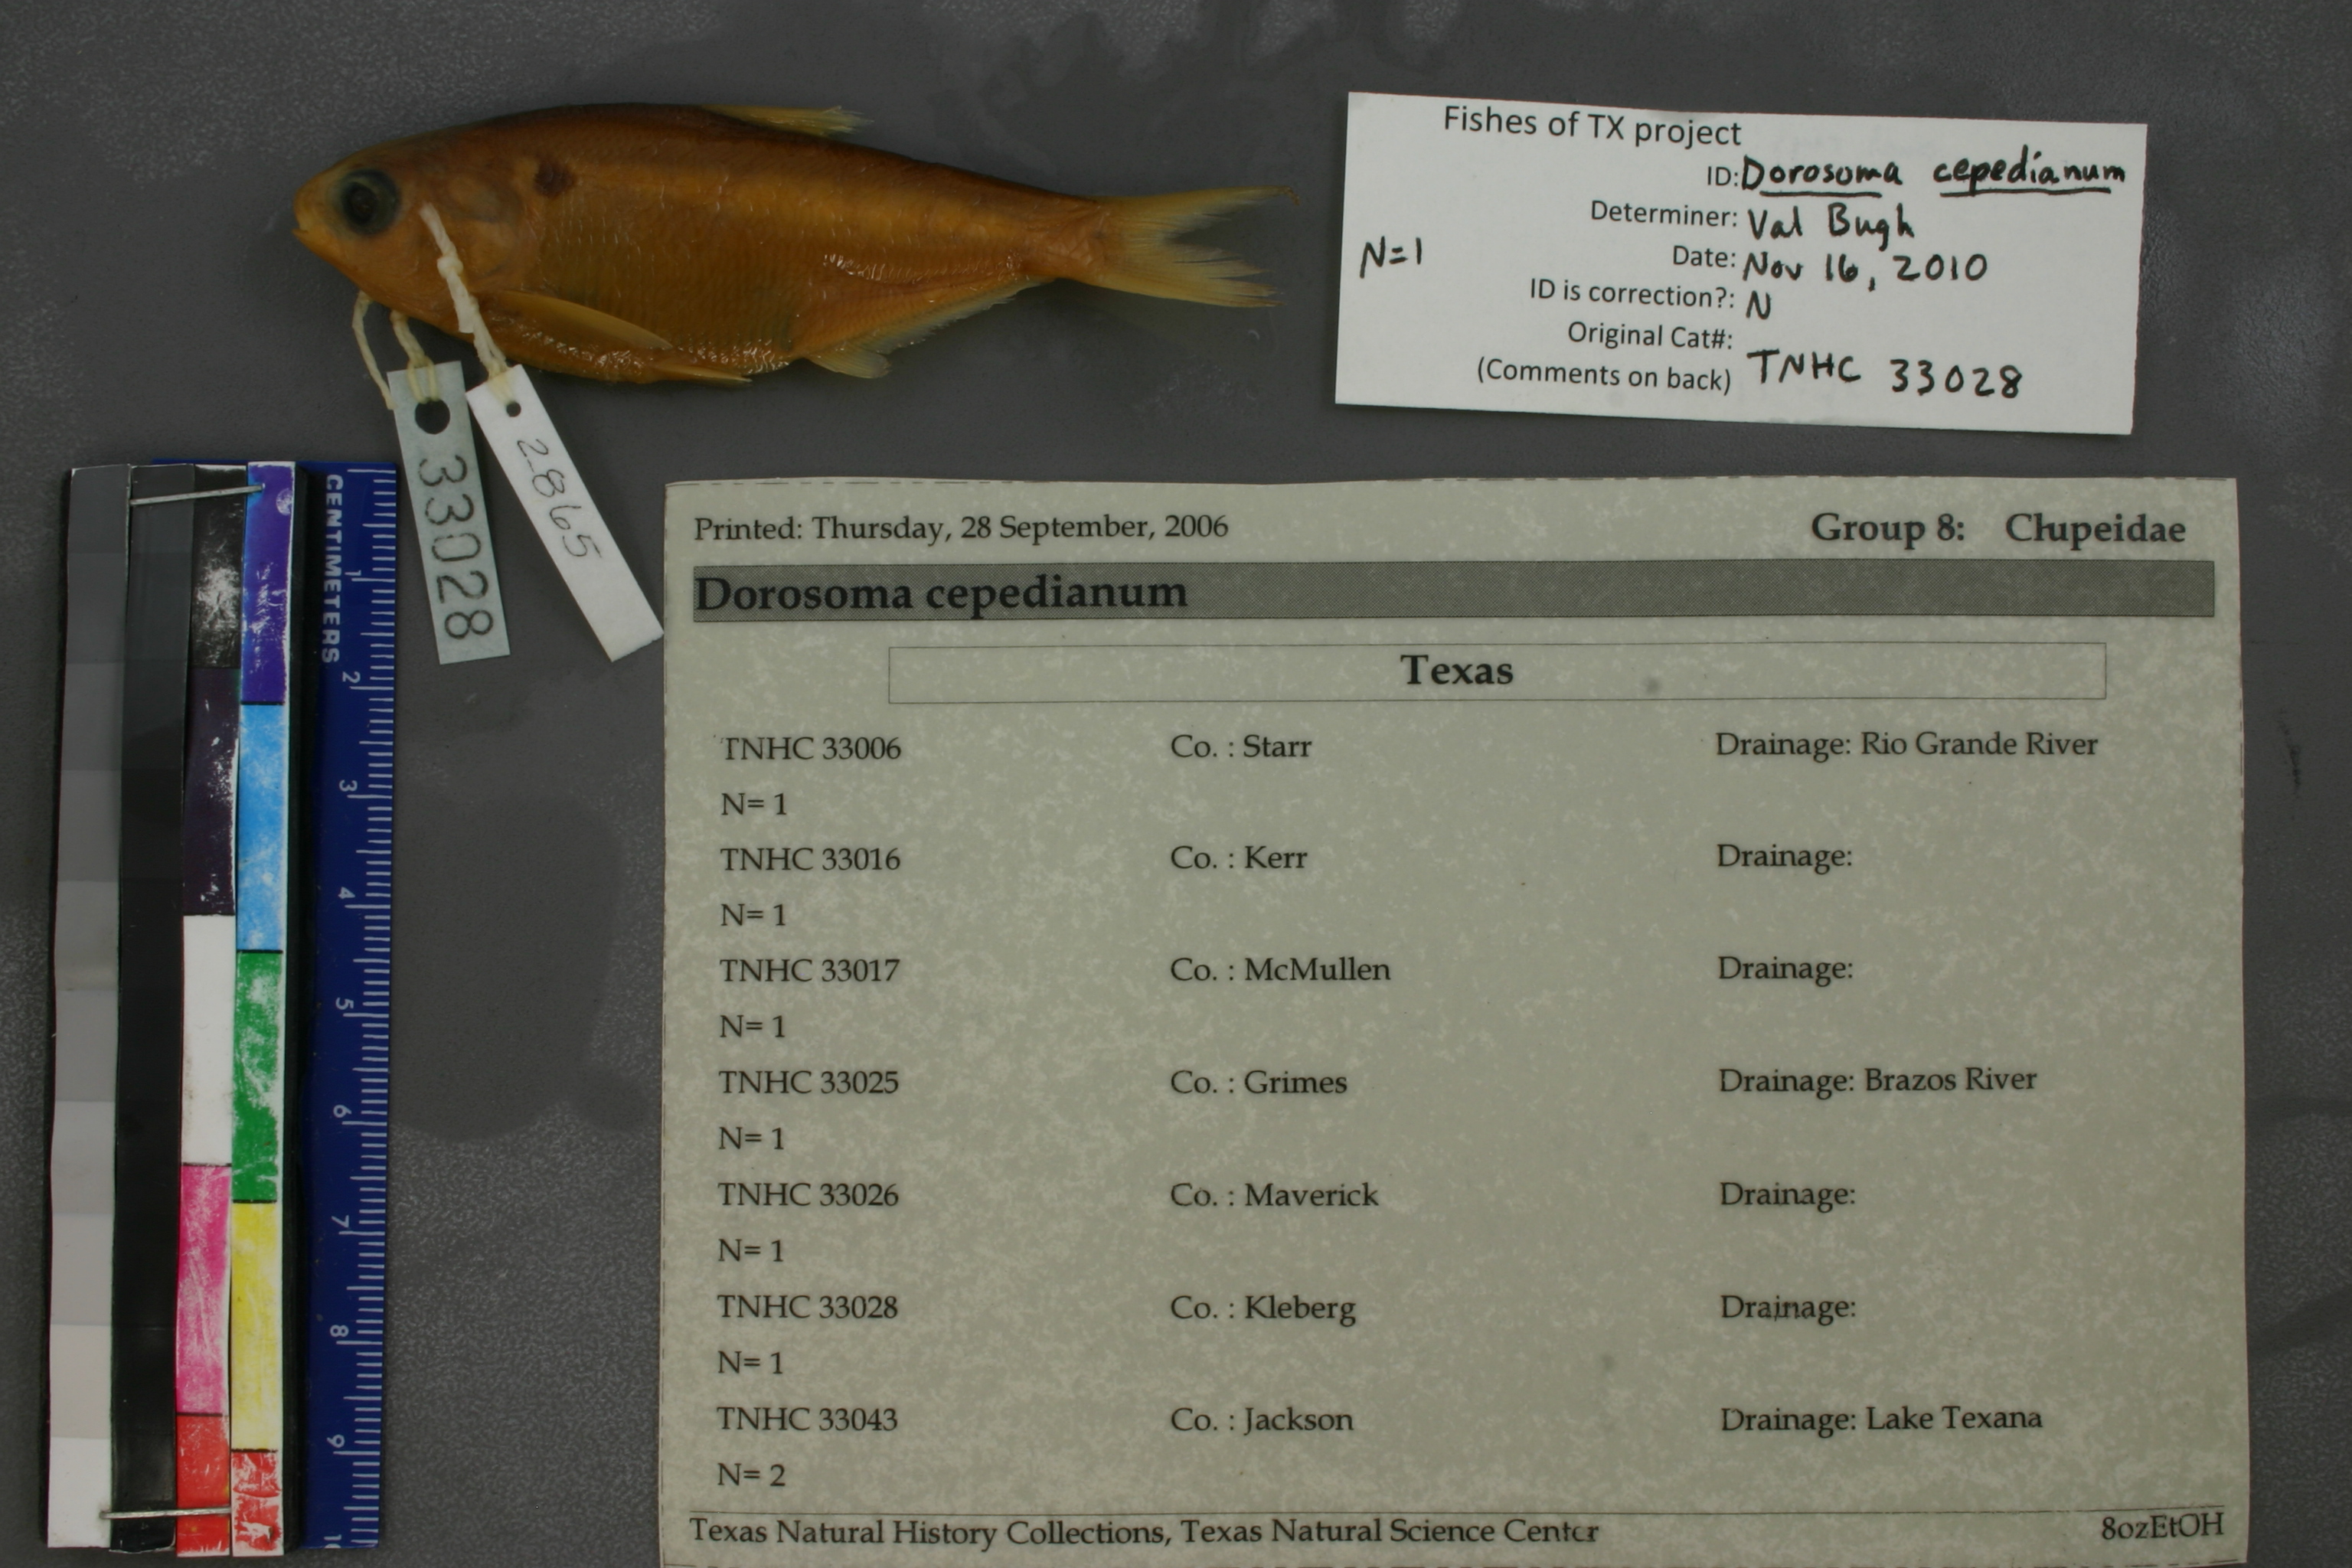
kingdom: Animalia
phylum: Chordata
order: Clupeiformes
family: Clupeidae
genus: Dorosoma
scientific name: Dorosoma cepedianum
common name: Gizzard shad
